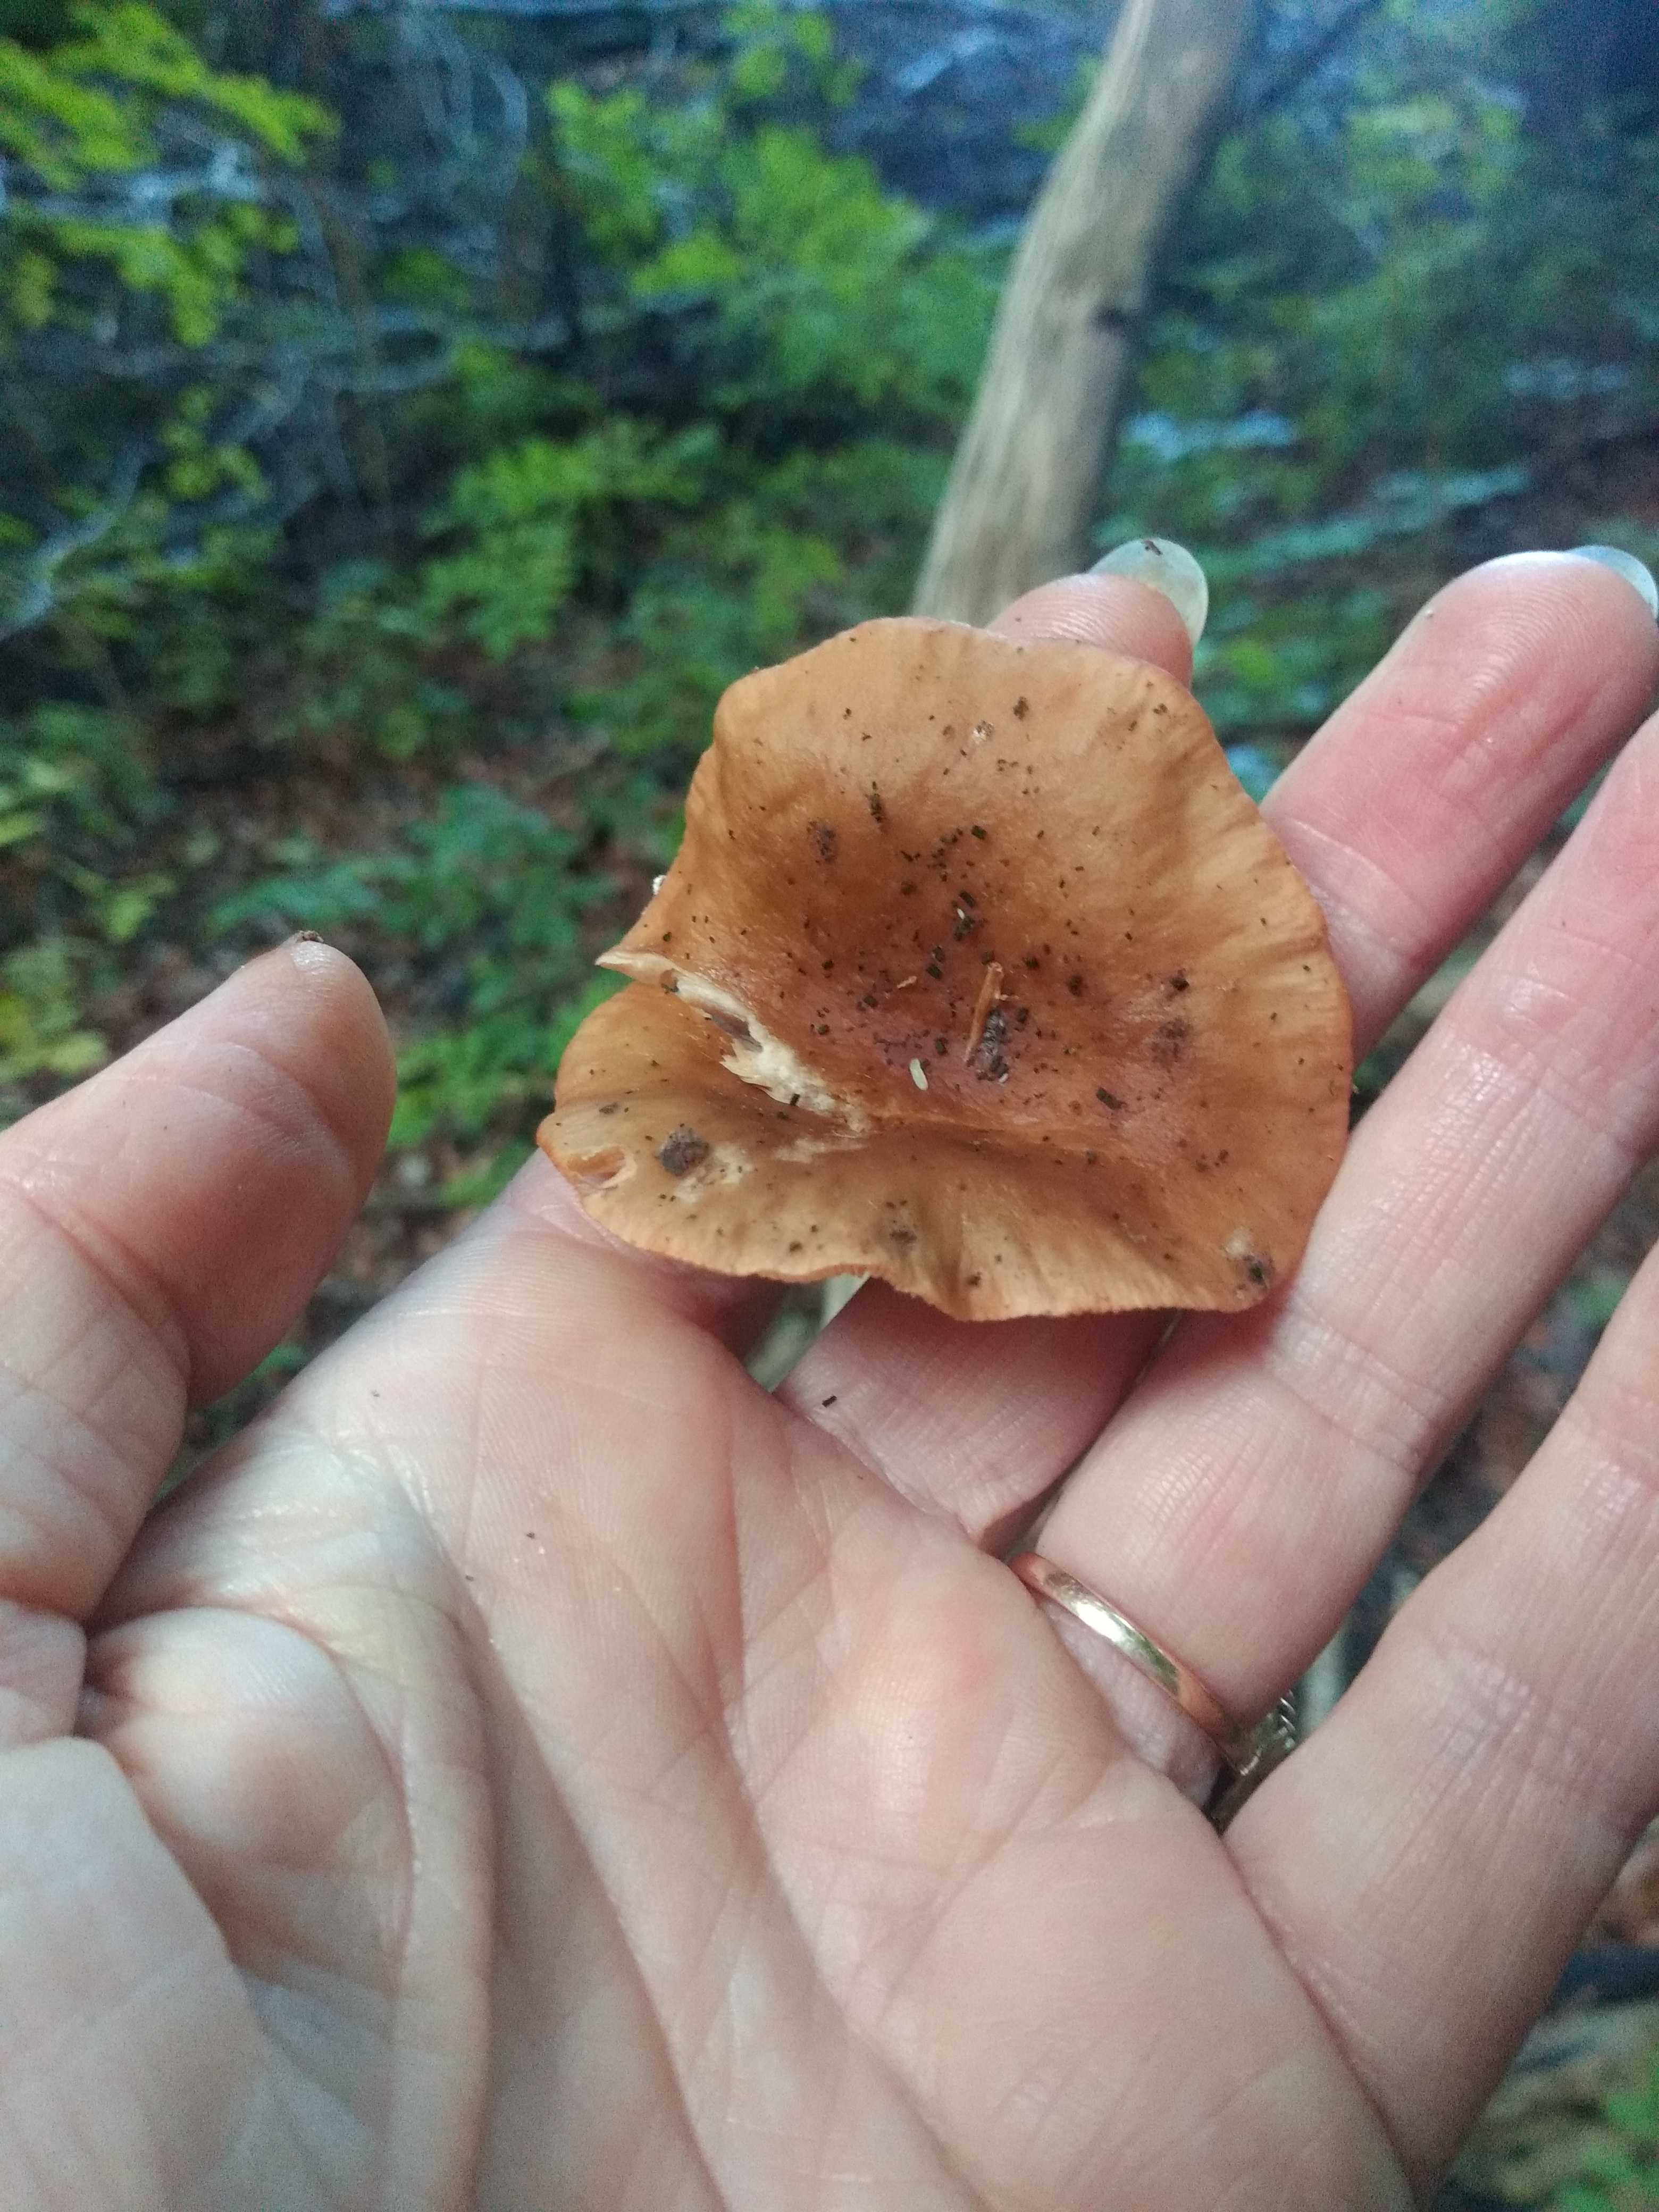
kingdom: Fungi
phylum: Basidiomycota
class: Agaricomycetes
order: Russulales
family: Russulaceae
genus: Lactarius
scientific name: Lactarius subdulcis
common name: sødlig mælkehat
